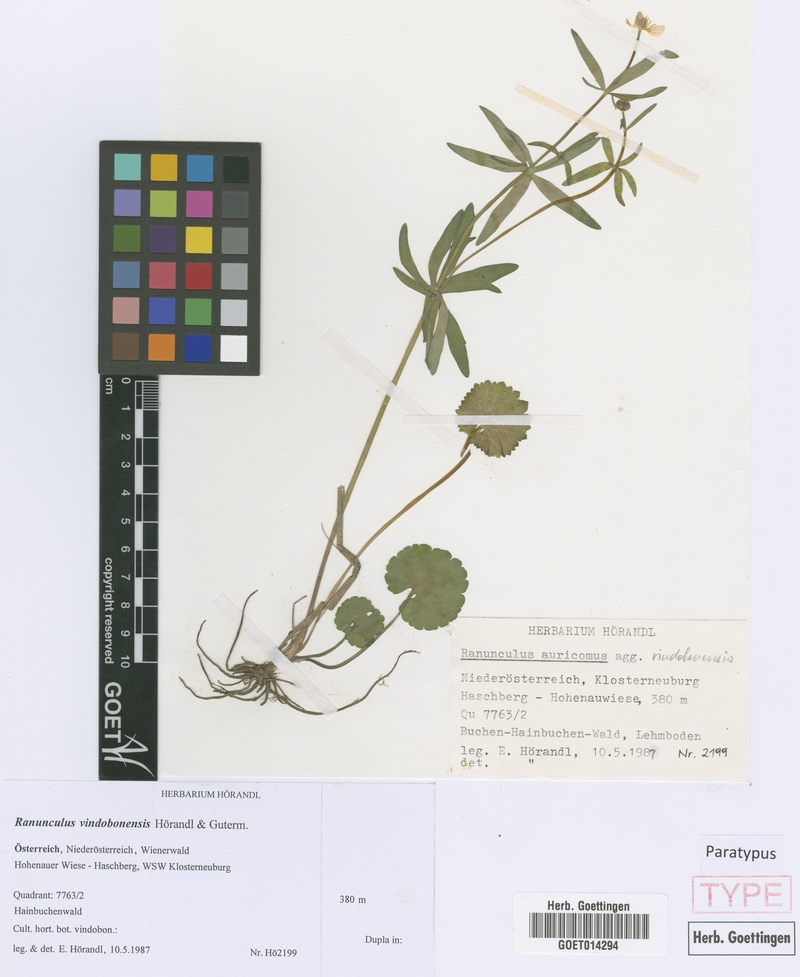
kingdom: Plantae
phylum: Tracheophyta
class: Magnoliopsida
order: Ranunculales
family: Ranunculaceae
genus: Ranunculus
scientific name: Ranunculus vindobonensis
